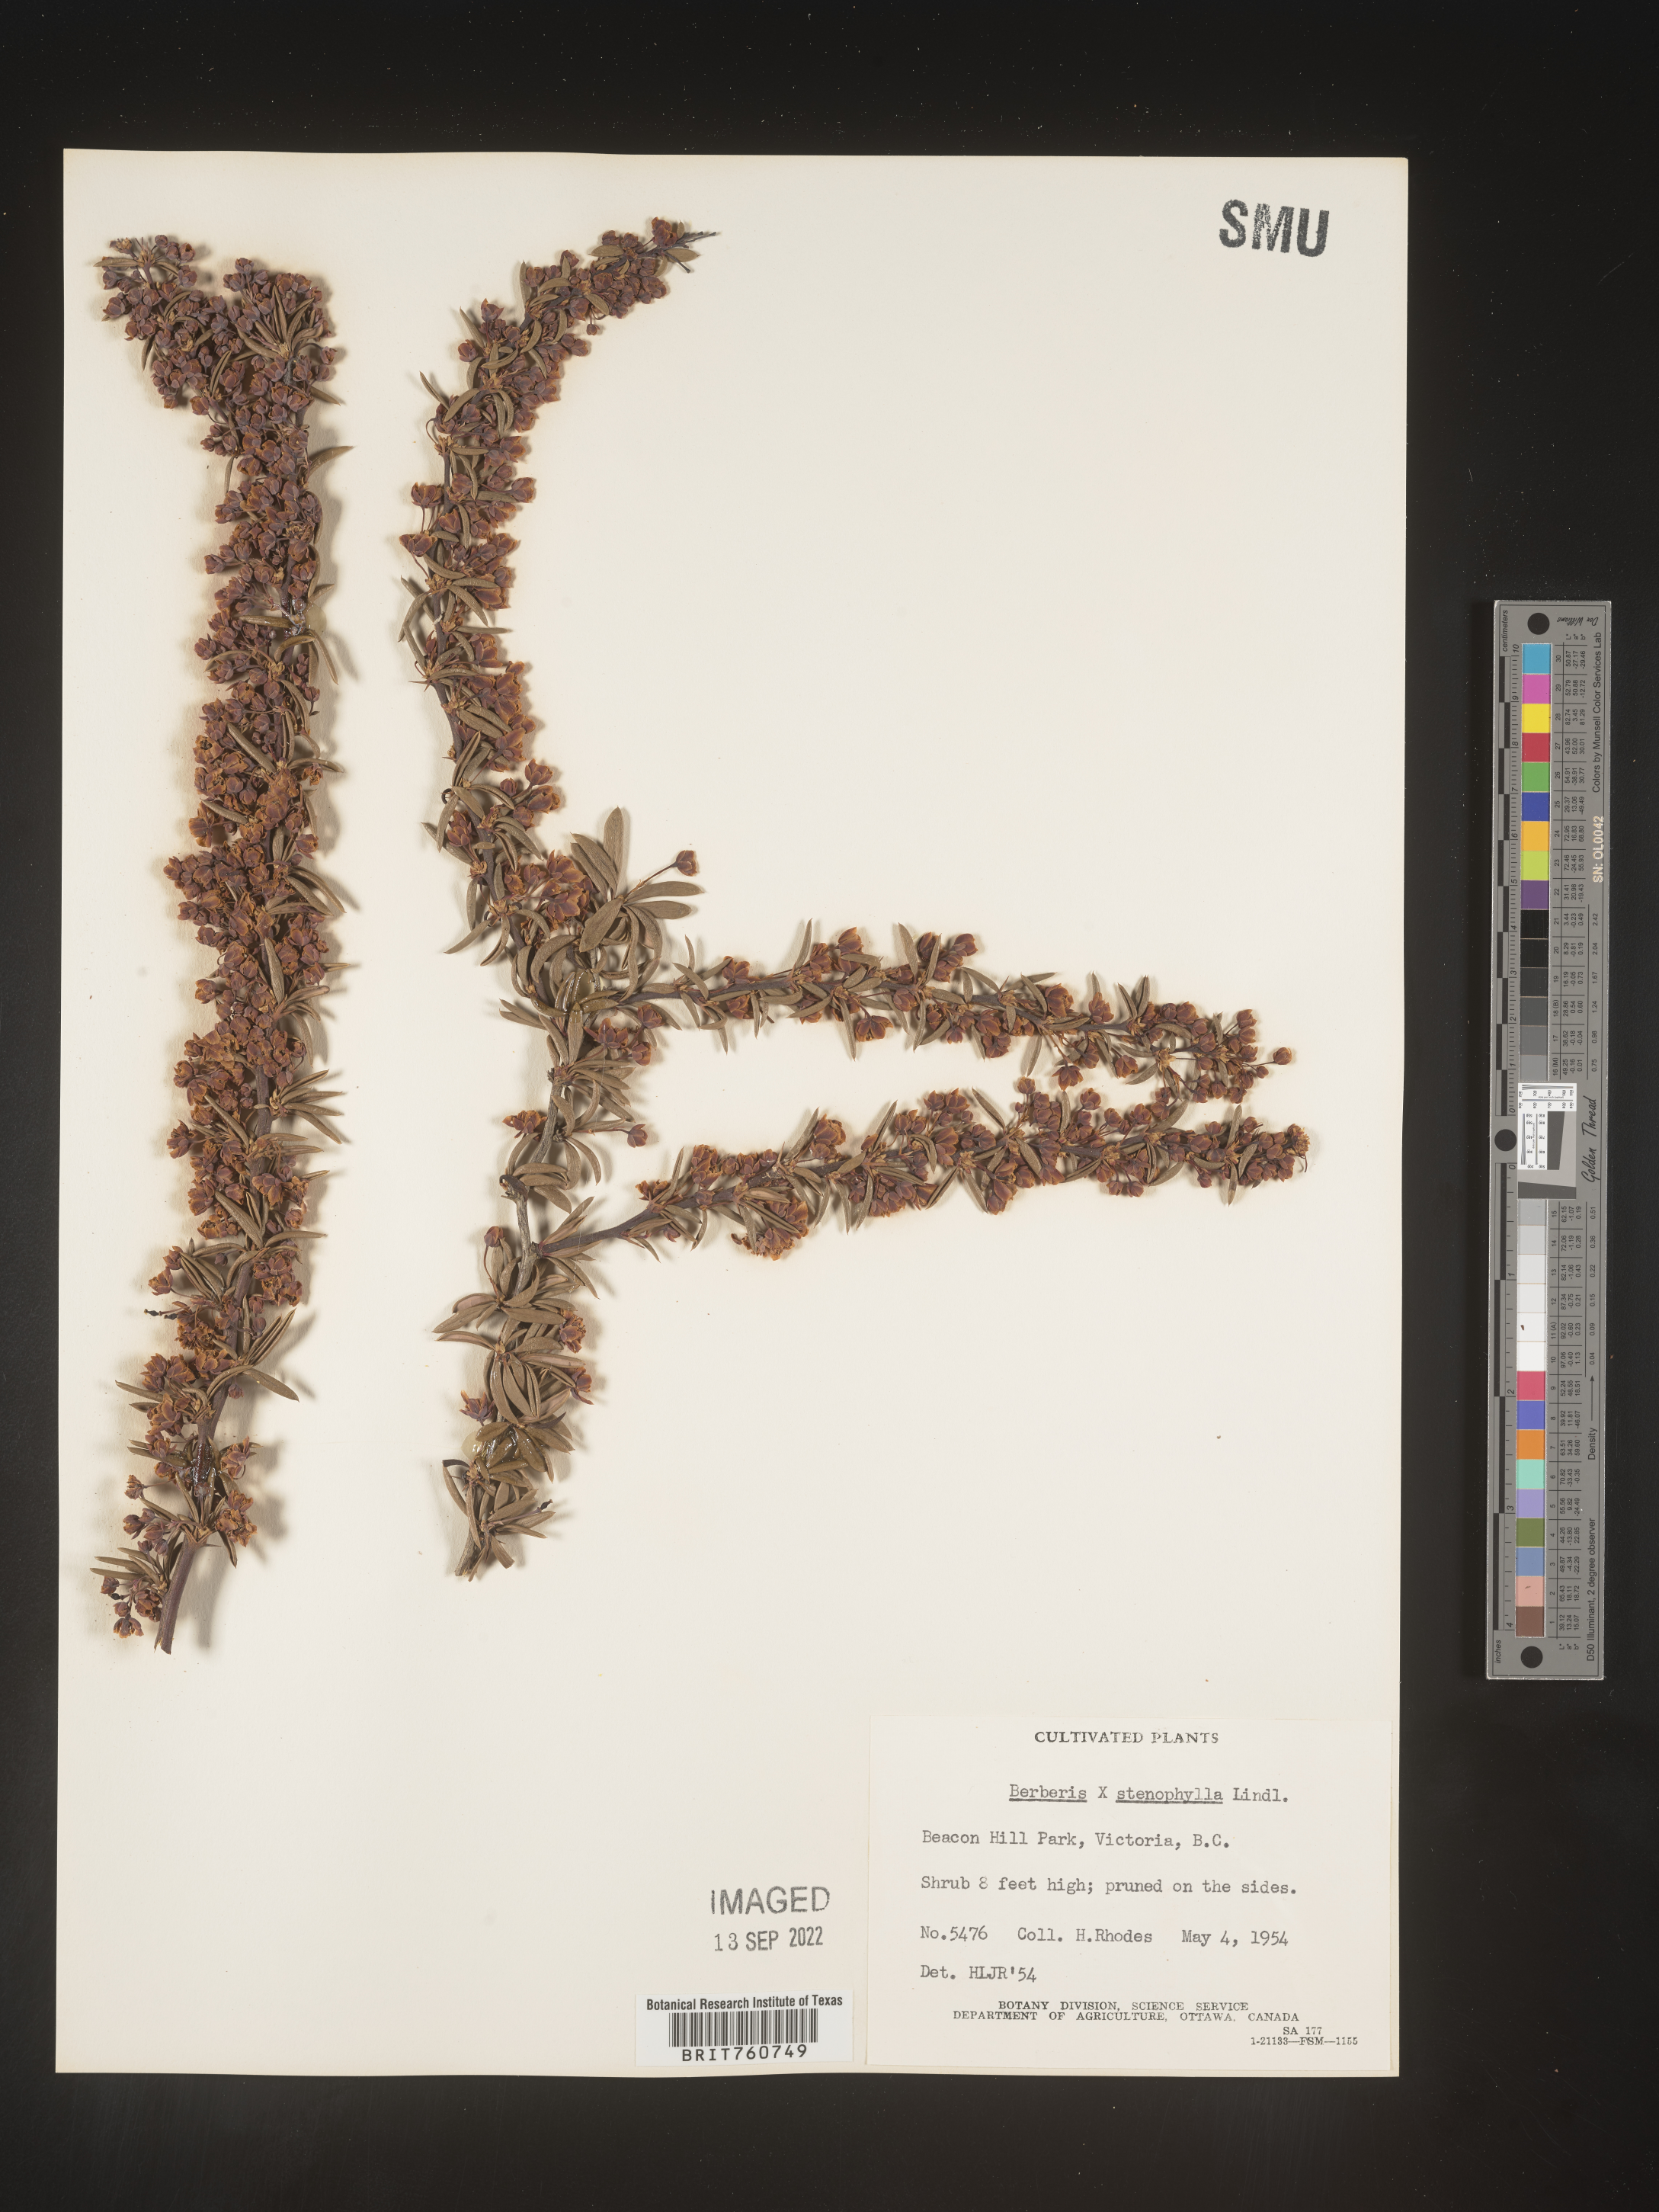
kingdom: Plantae
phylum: Tracheophyta
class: Magnoliopsida
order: Ranunculales
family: Berberidaceae
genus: Berberis
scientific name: Berberis
